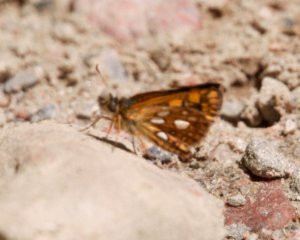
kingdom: Animalia
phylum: Arthropoda
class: Insecta
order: Lepidoptera
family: Hesperiidae
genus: Carterocephalus
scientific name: Carterocephalus palaemon
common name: Chequered Skipper
